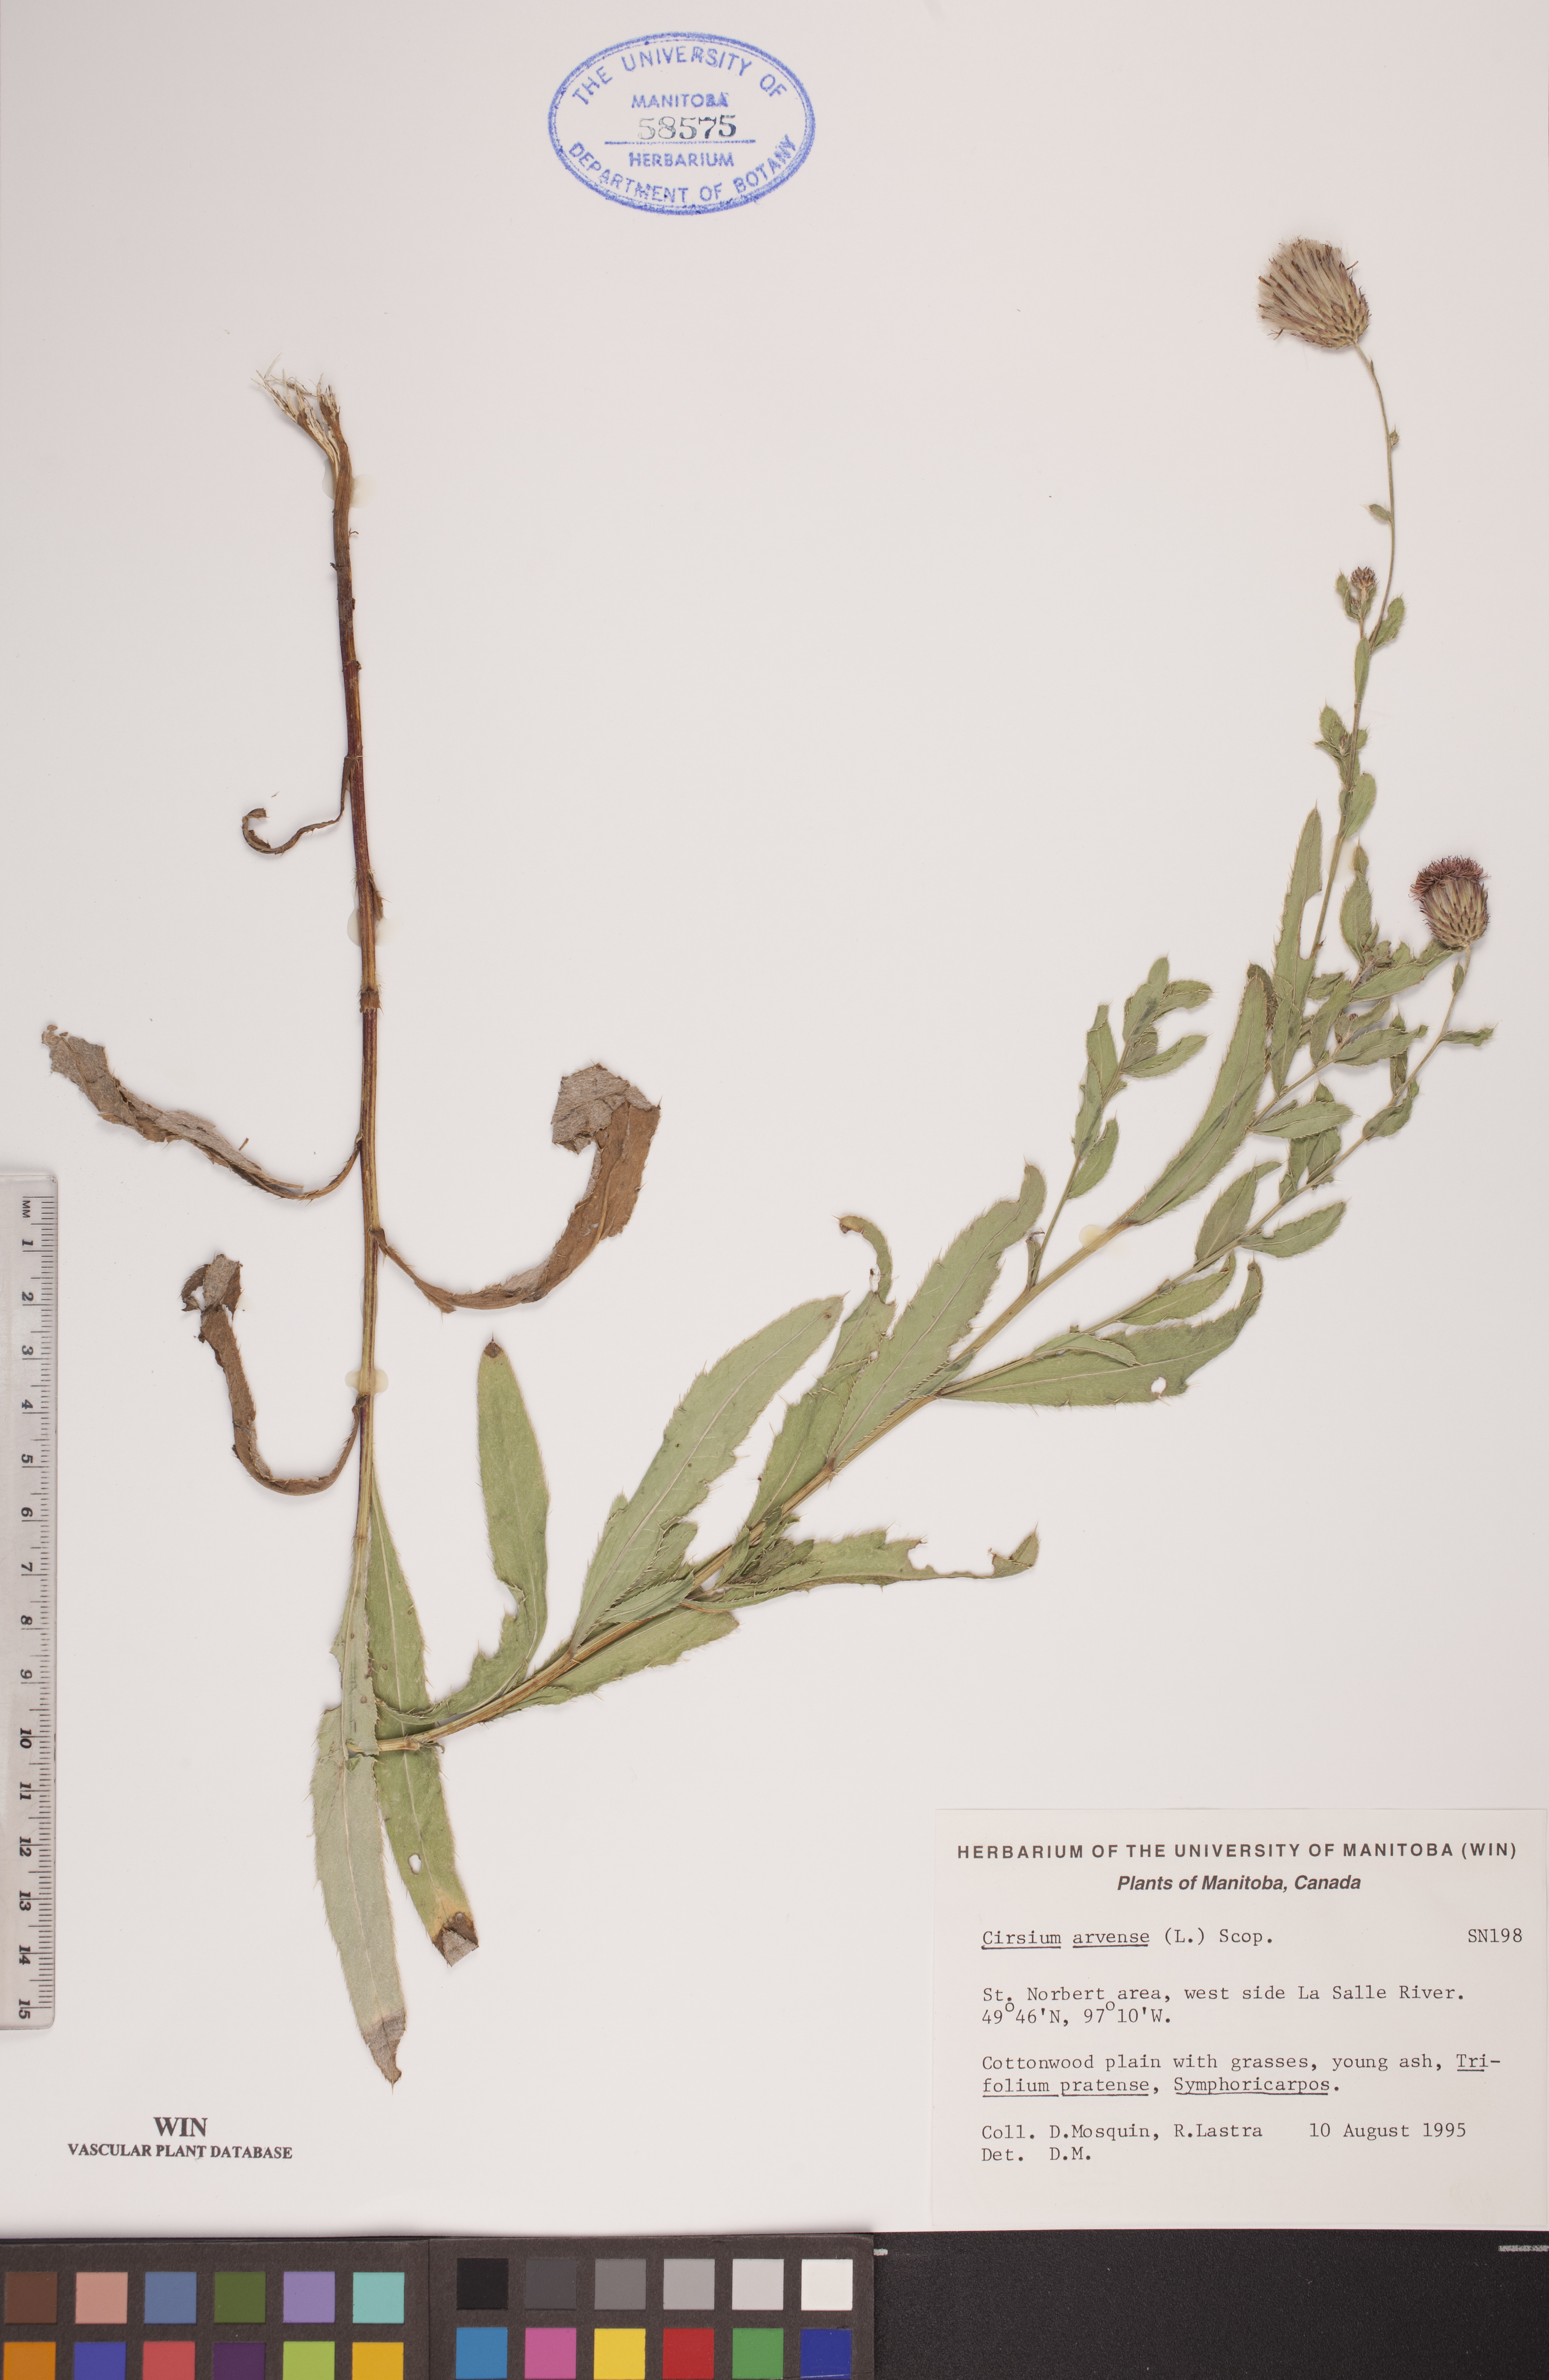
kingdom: Plantae
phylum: Tracheophyta
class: Magnoliopsida
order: Asterales
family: Asteraceae
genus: Cirsium
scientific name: Cirsium arvense
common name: Creeping thistle
